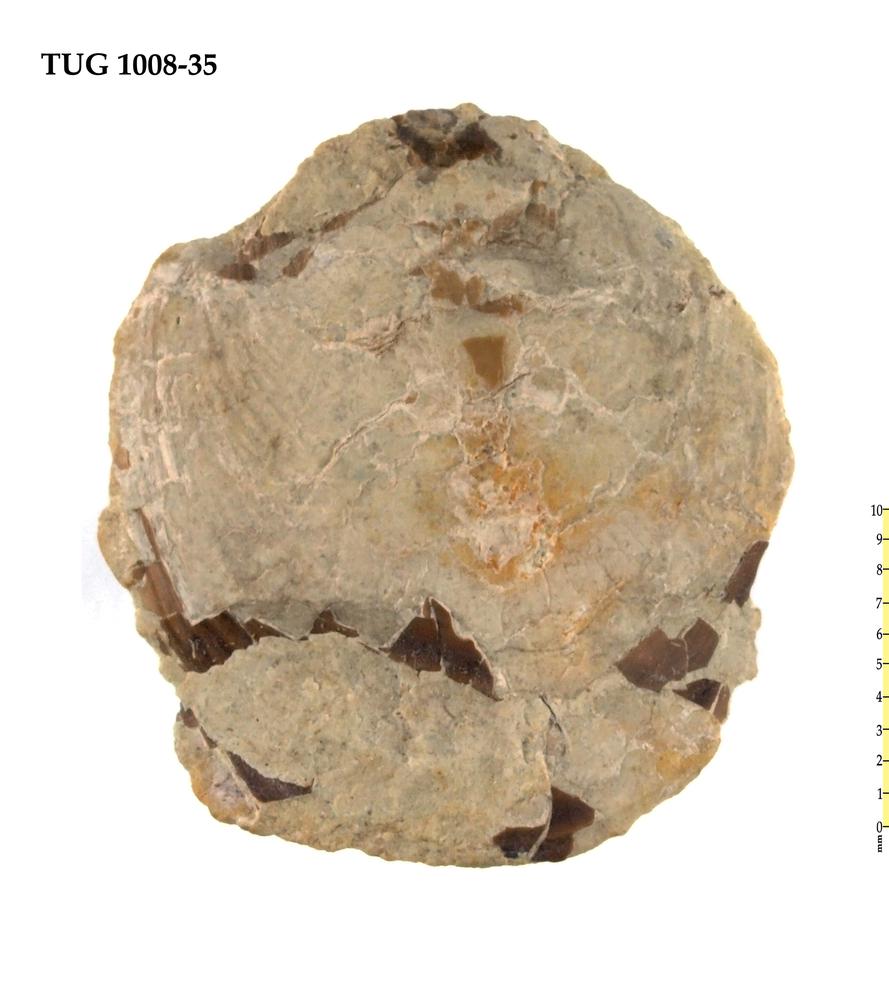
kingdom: Animalia
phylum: Brachiopoda
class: Lingulata
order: Lingulida
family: Pseudolingulidae
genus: Pseudolingula
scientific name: Pseudolingula Crania quadrata
